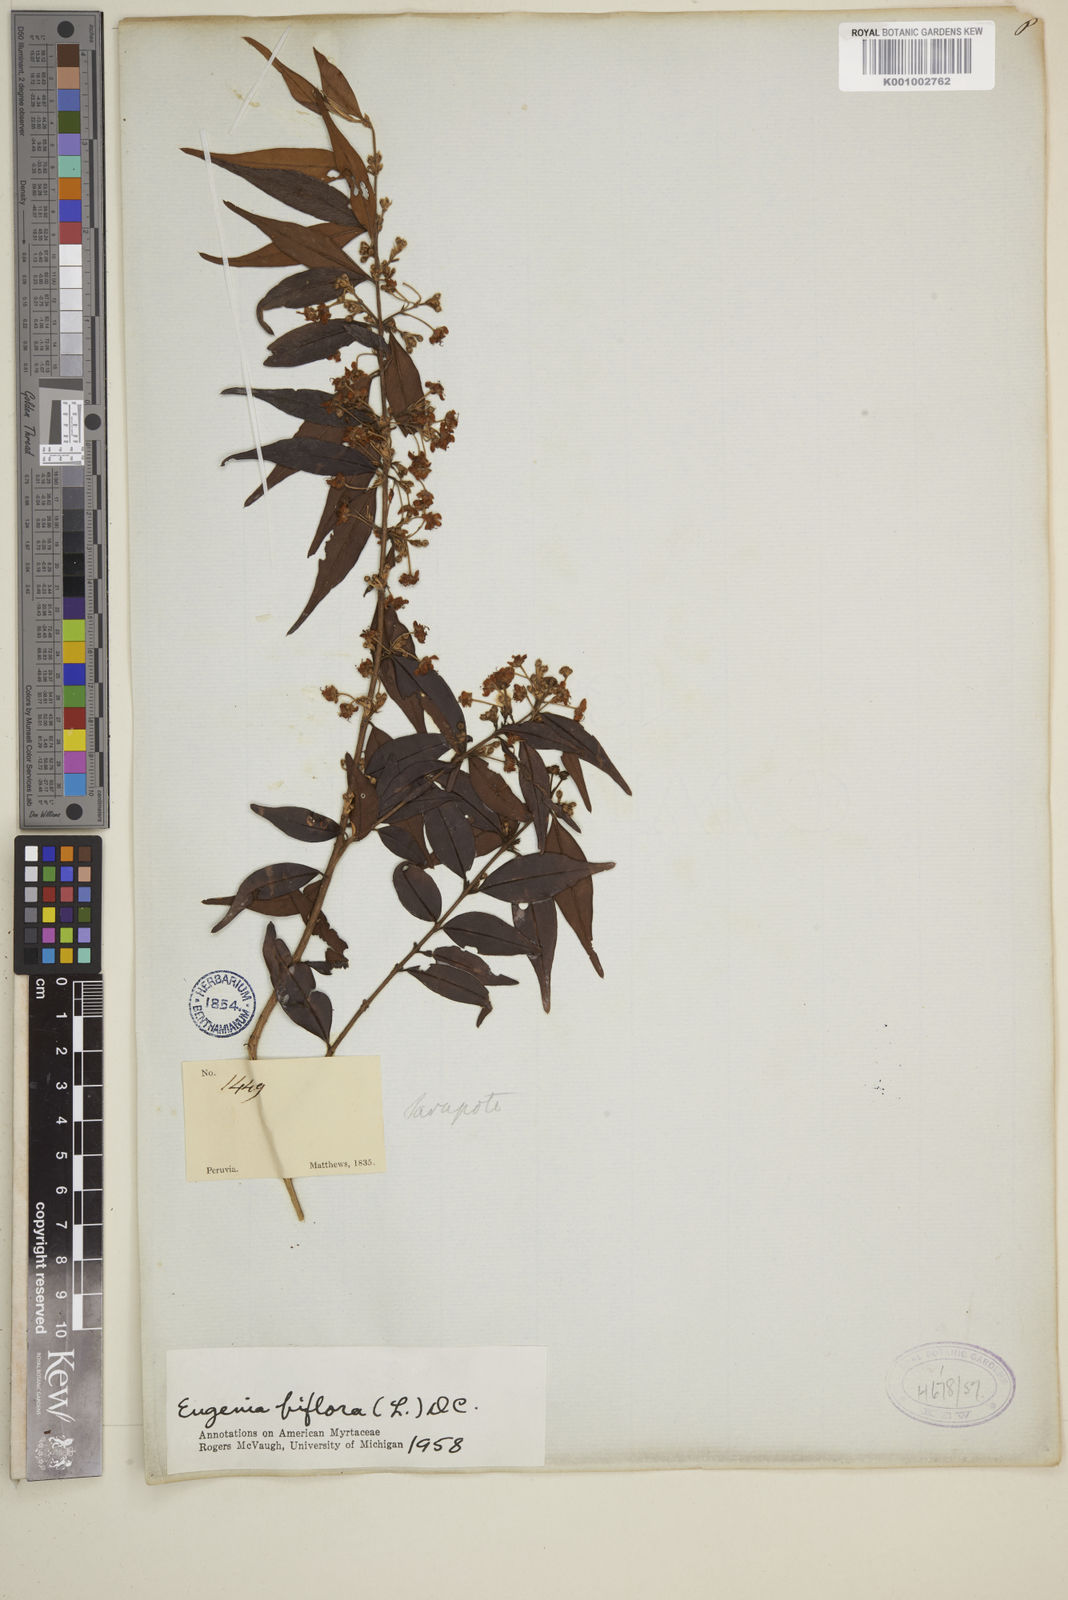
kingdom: Plantae
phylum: Tracheophyta
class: Magnoliopsida
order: Myrtales
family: Myrtaceae
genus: Eugenia
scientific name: Eugenia biflora
